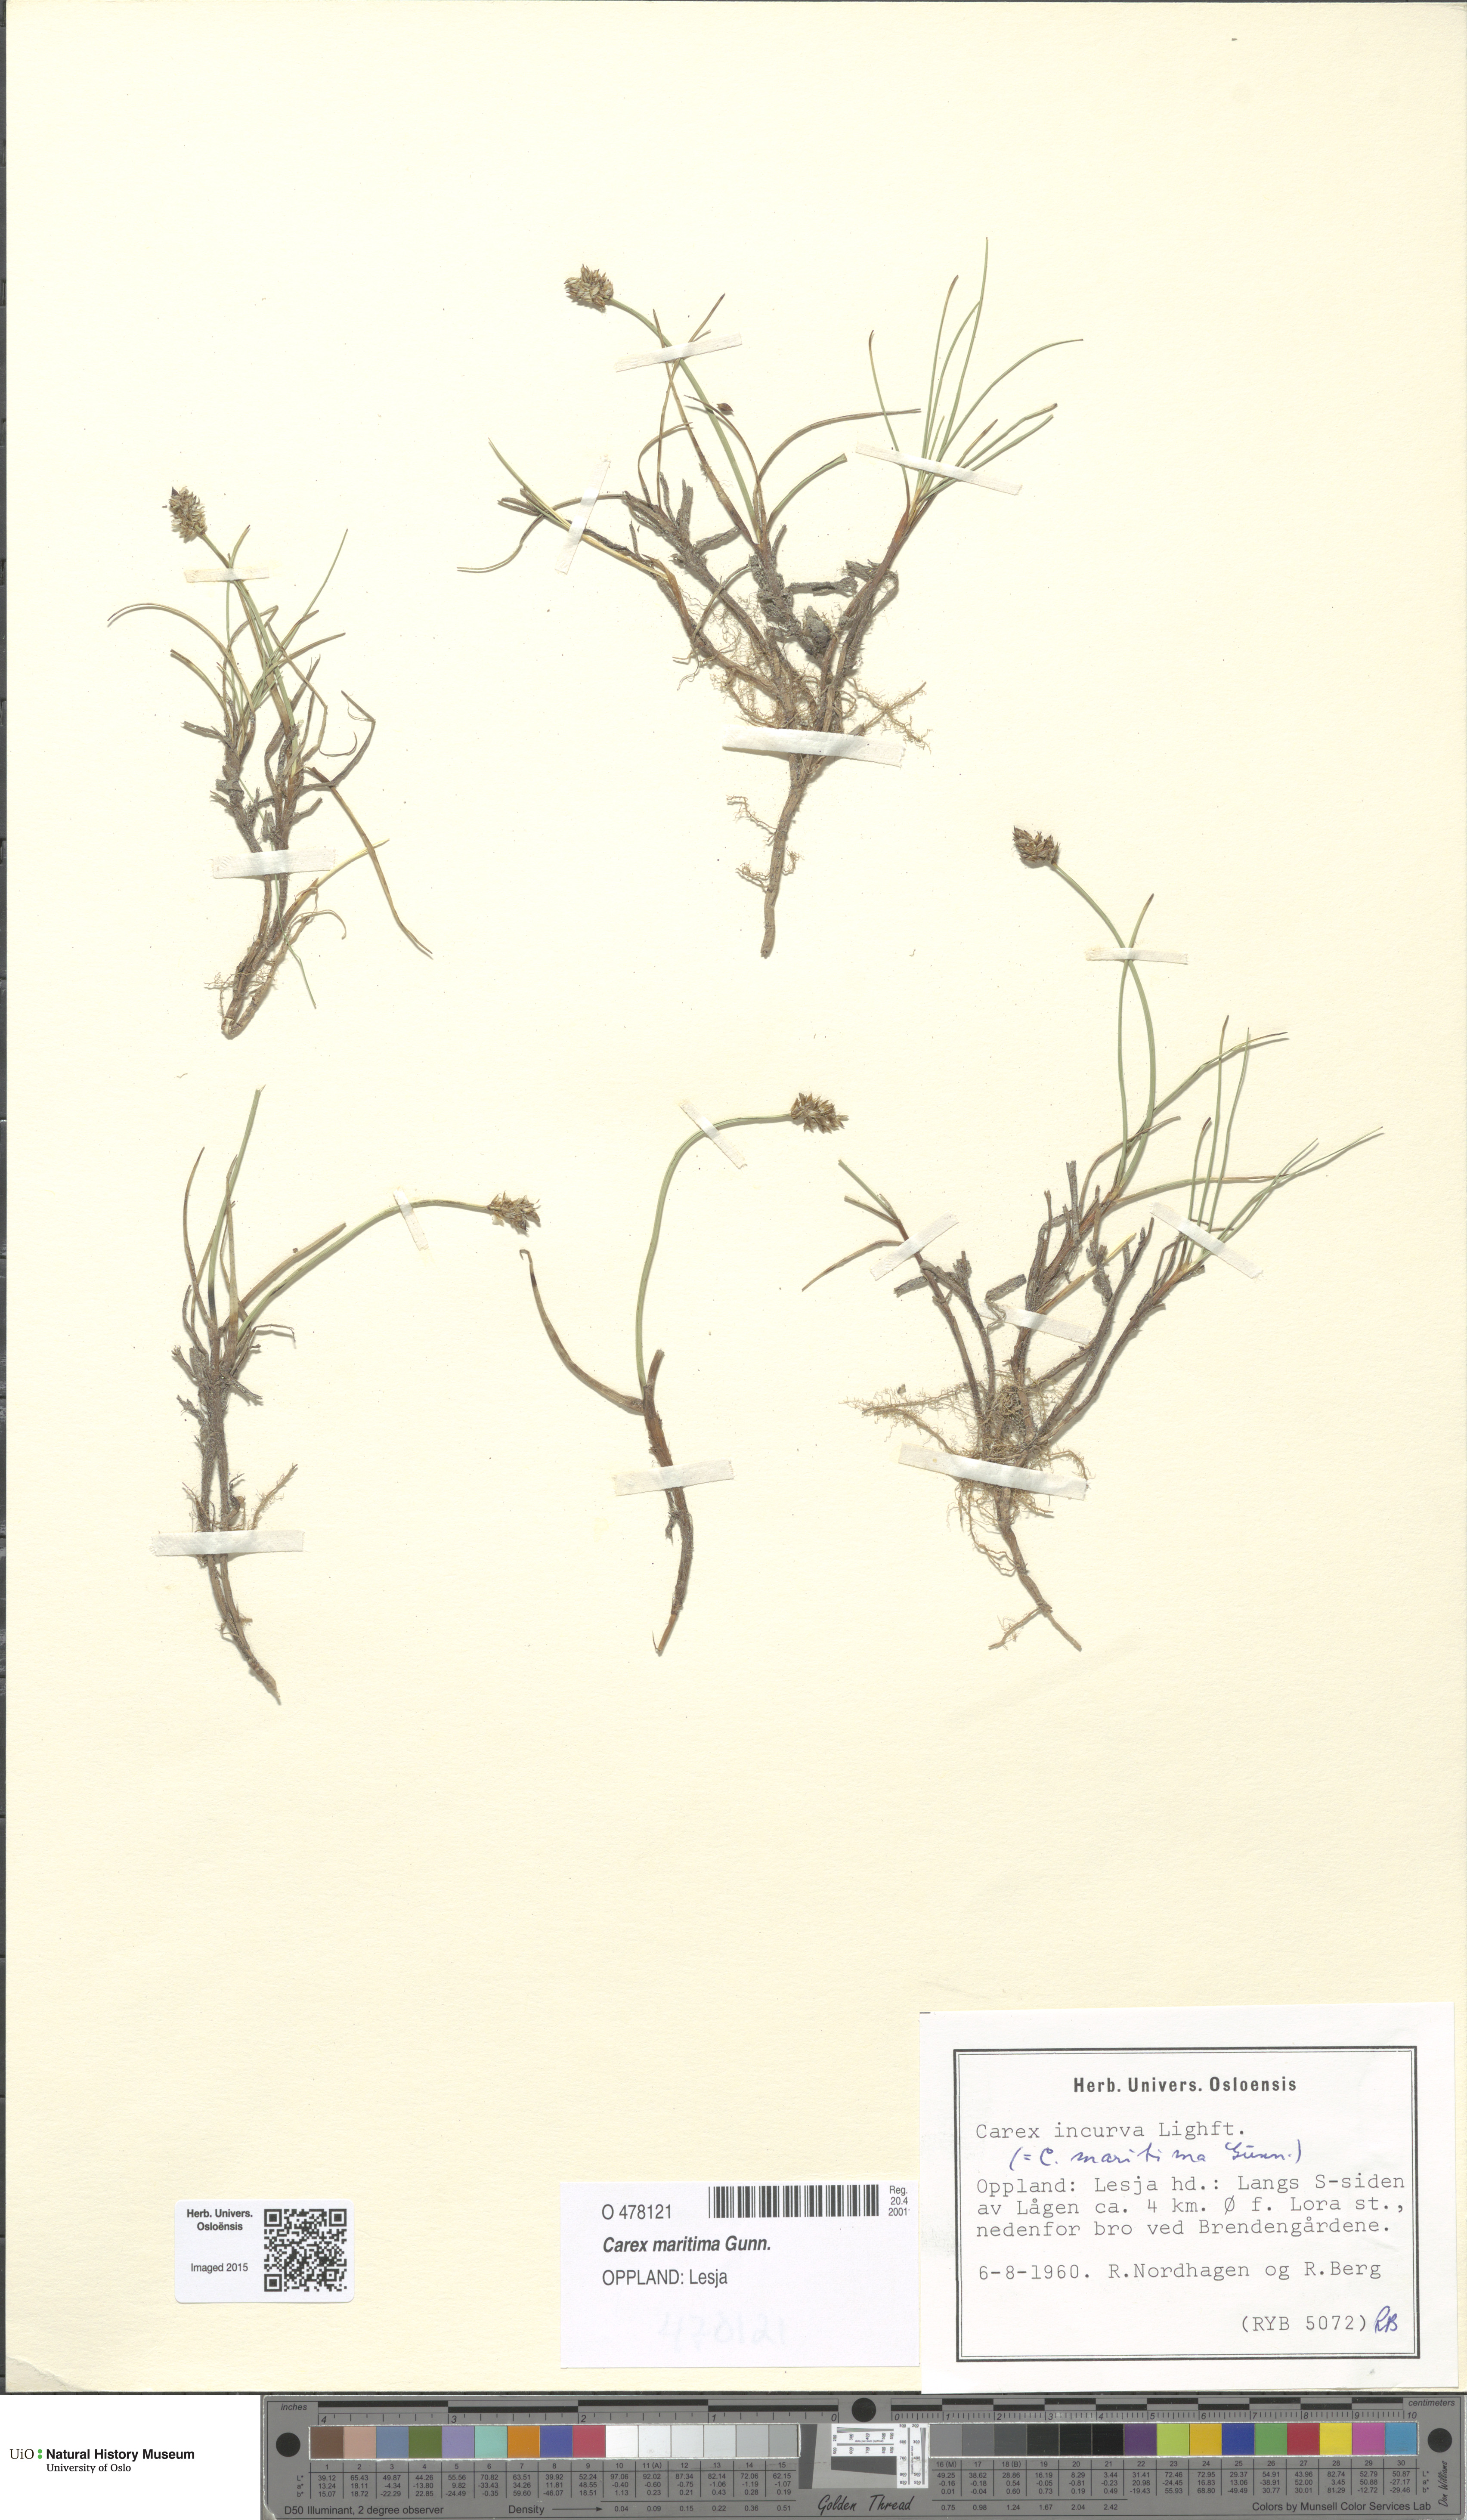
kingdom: Plantae
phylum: Tracheophyta
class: Liliopsida
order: Poales
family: Cyperaceae
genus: Carex
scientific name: Carex maritima
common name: Curved sedge
